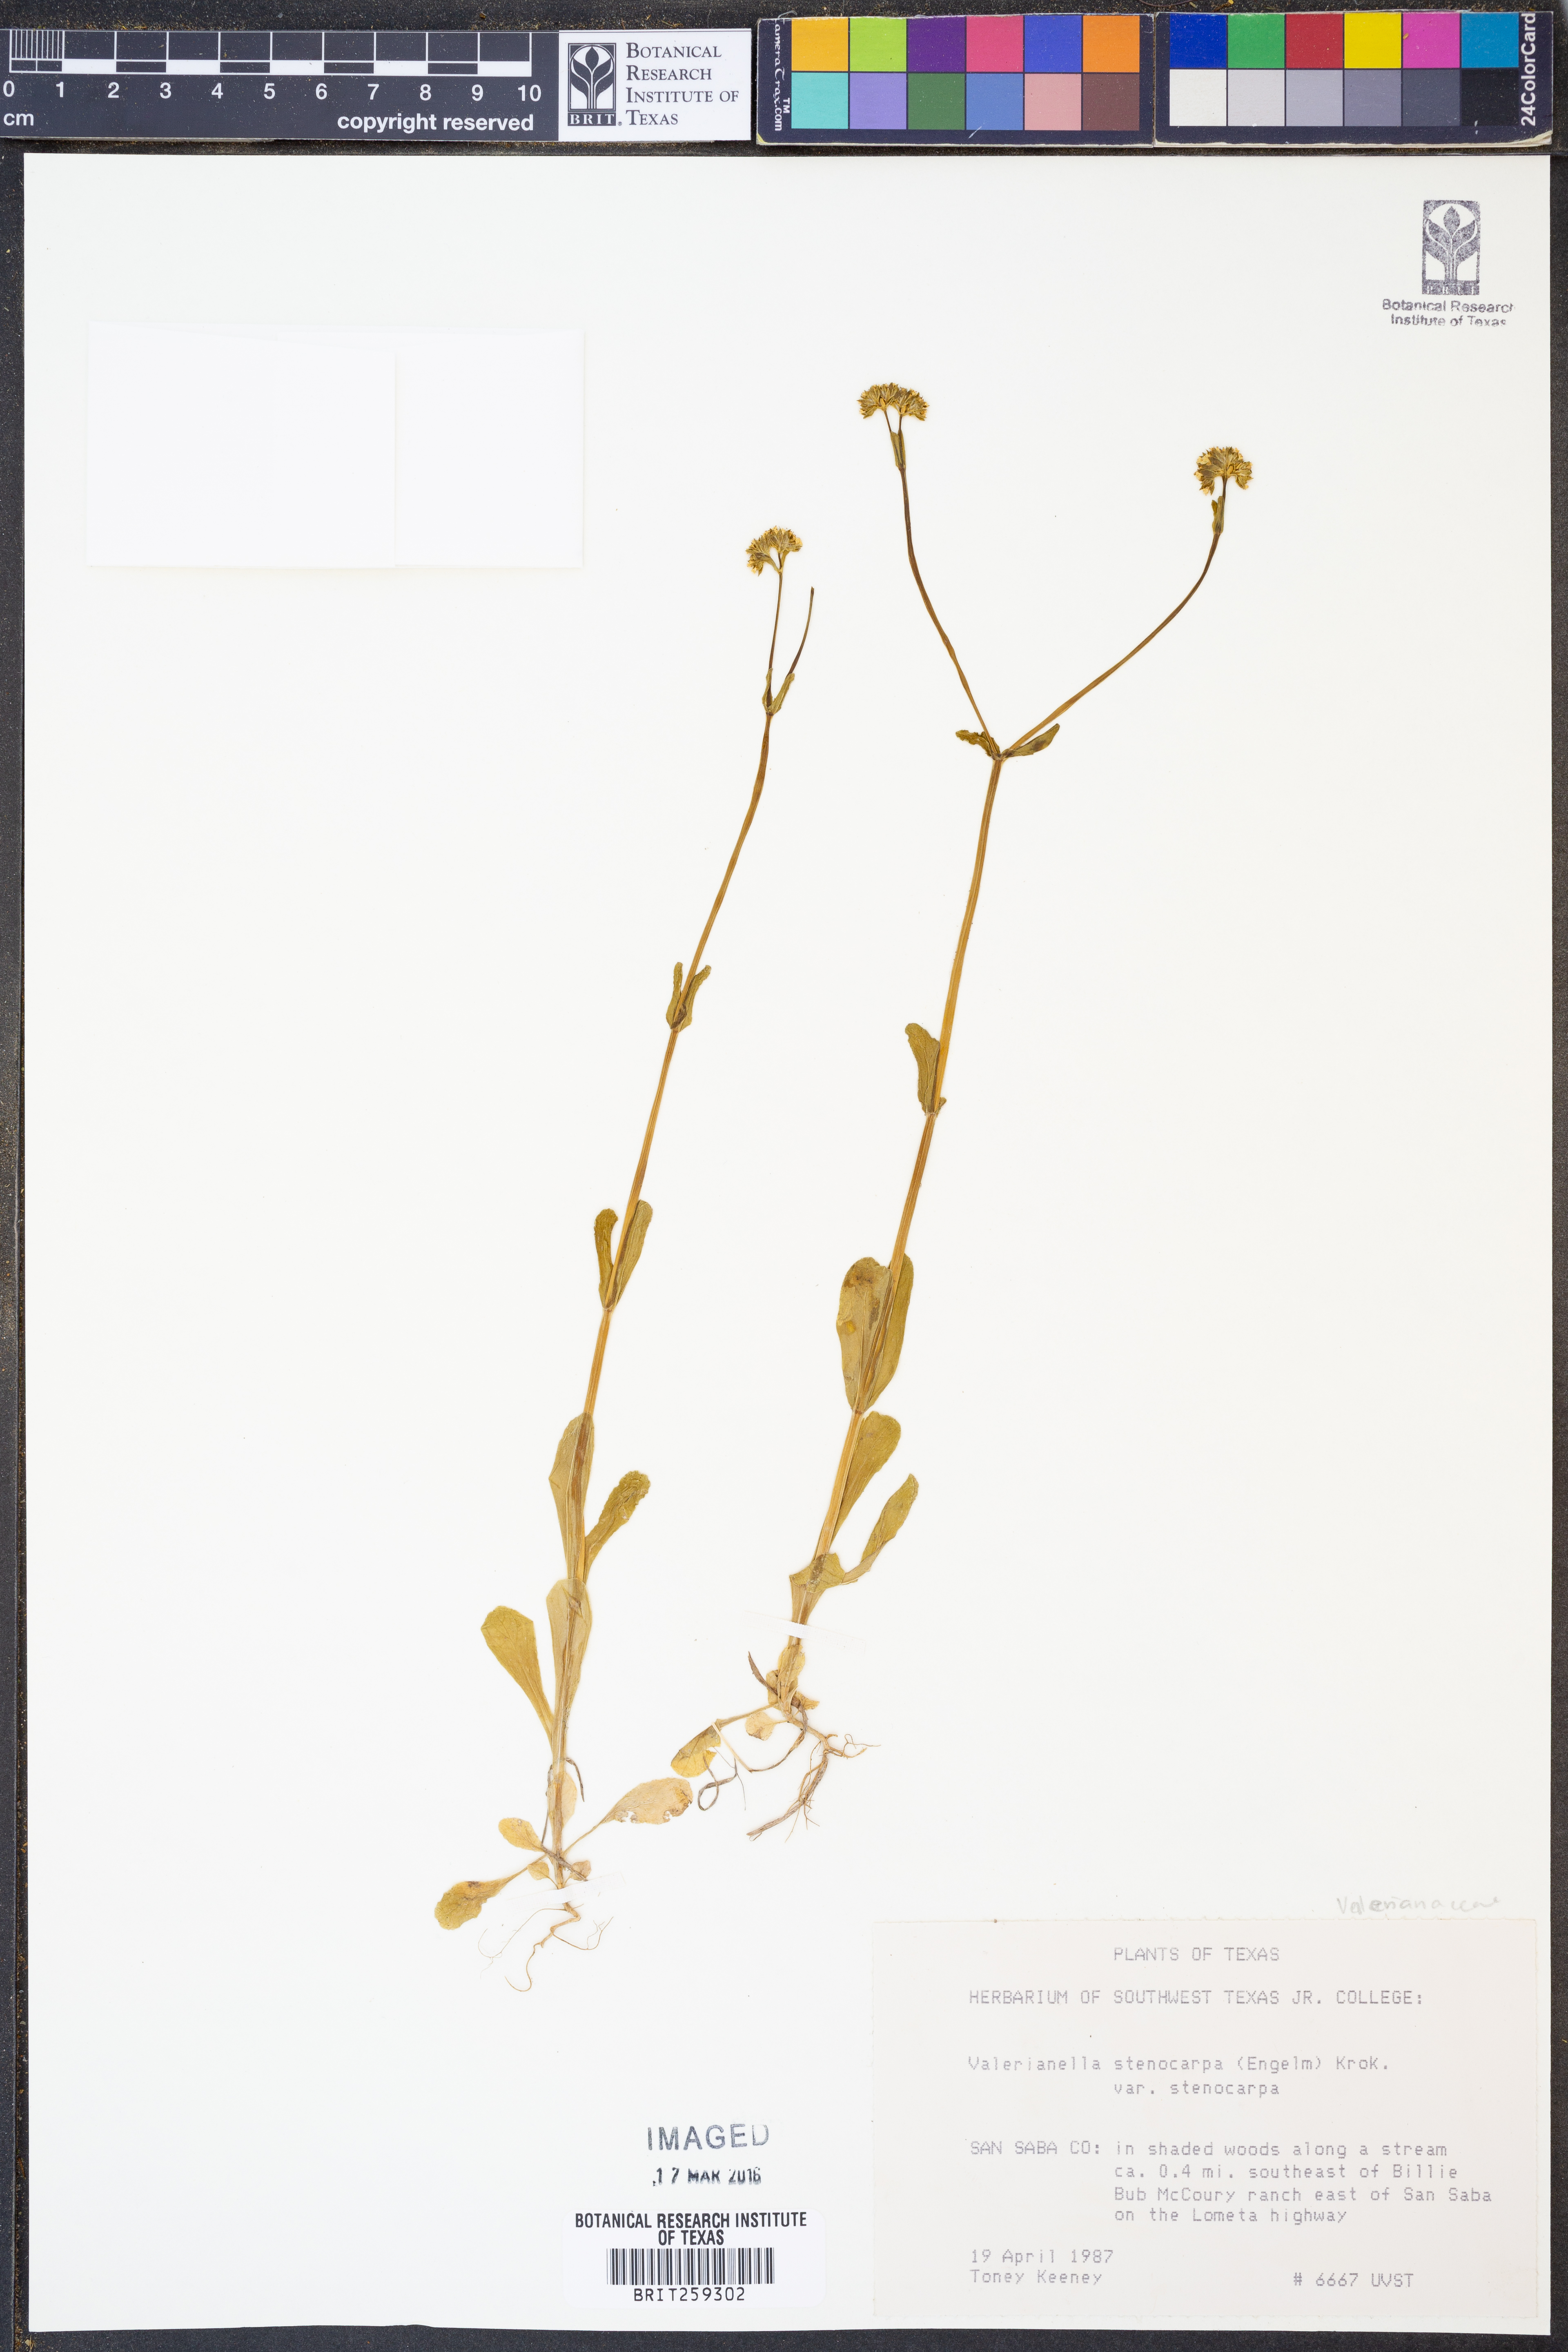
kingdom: Plantae
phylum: Tracheophyta
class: Magnoliopsida
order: Dipsacales
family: Caprifoliaceae
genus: Valerianella
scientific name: Valerianella stenocarpa
